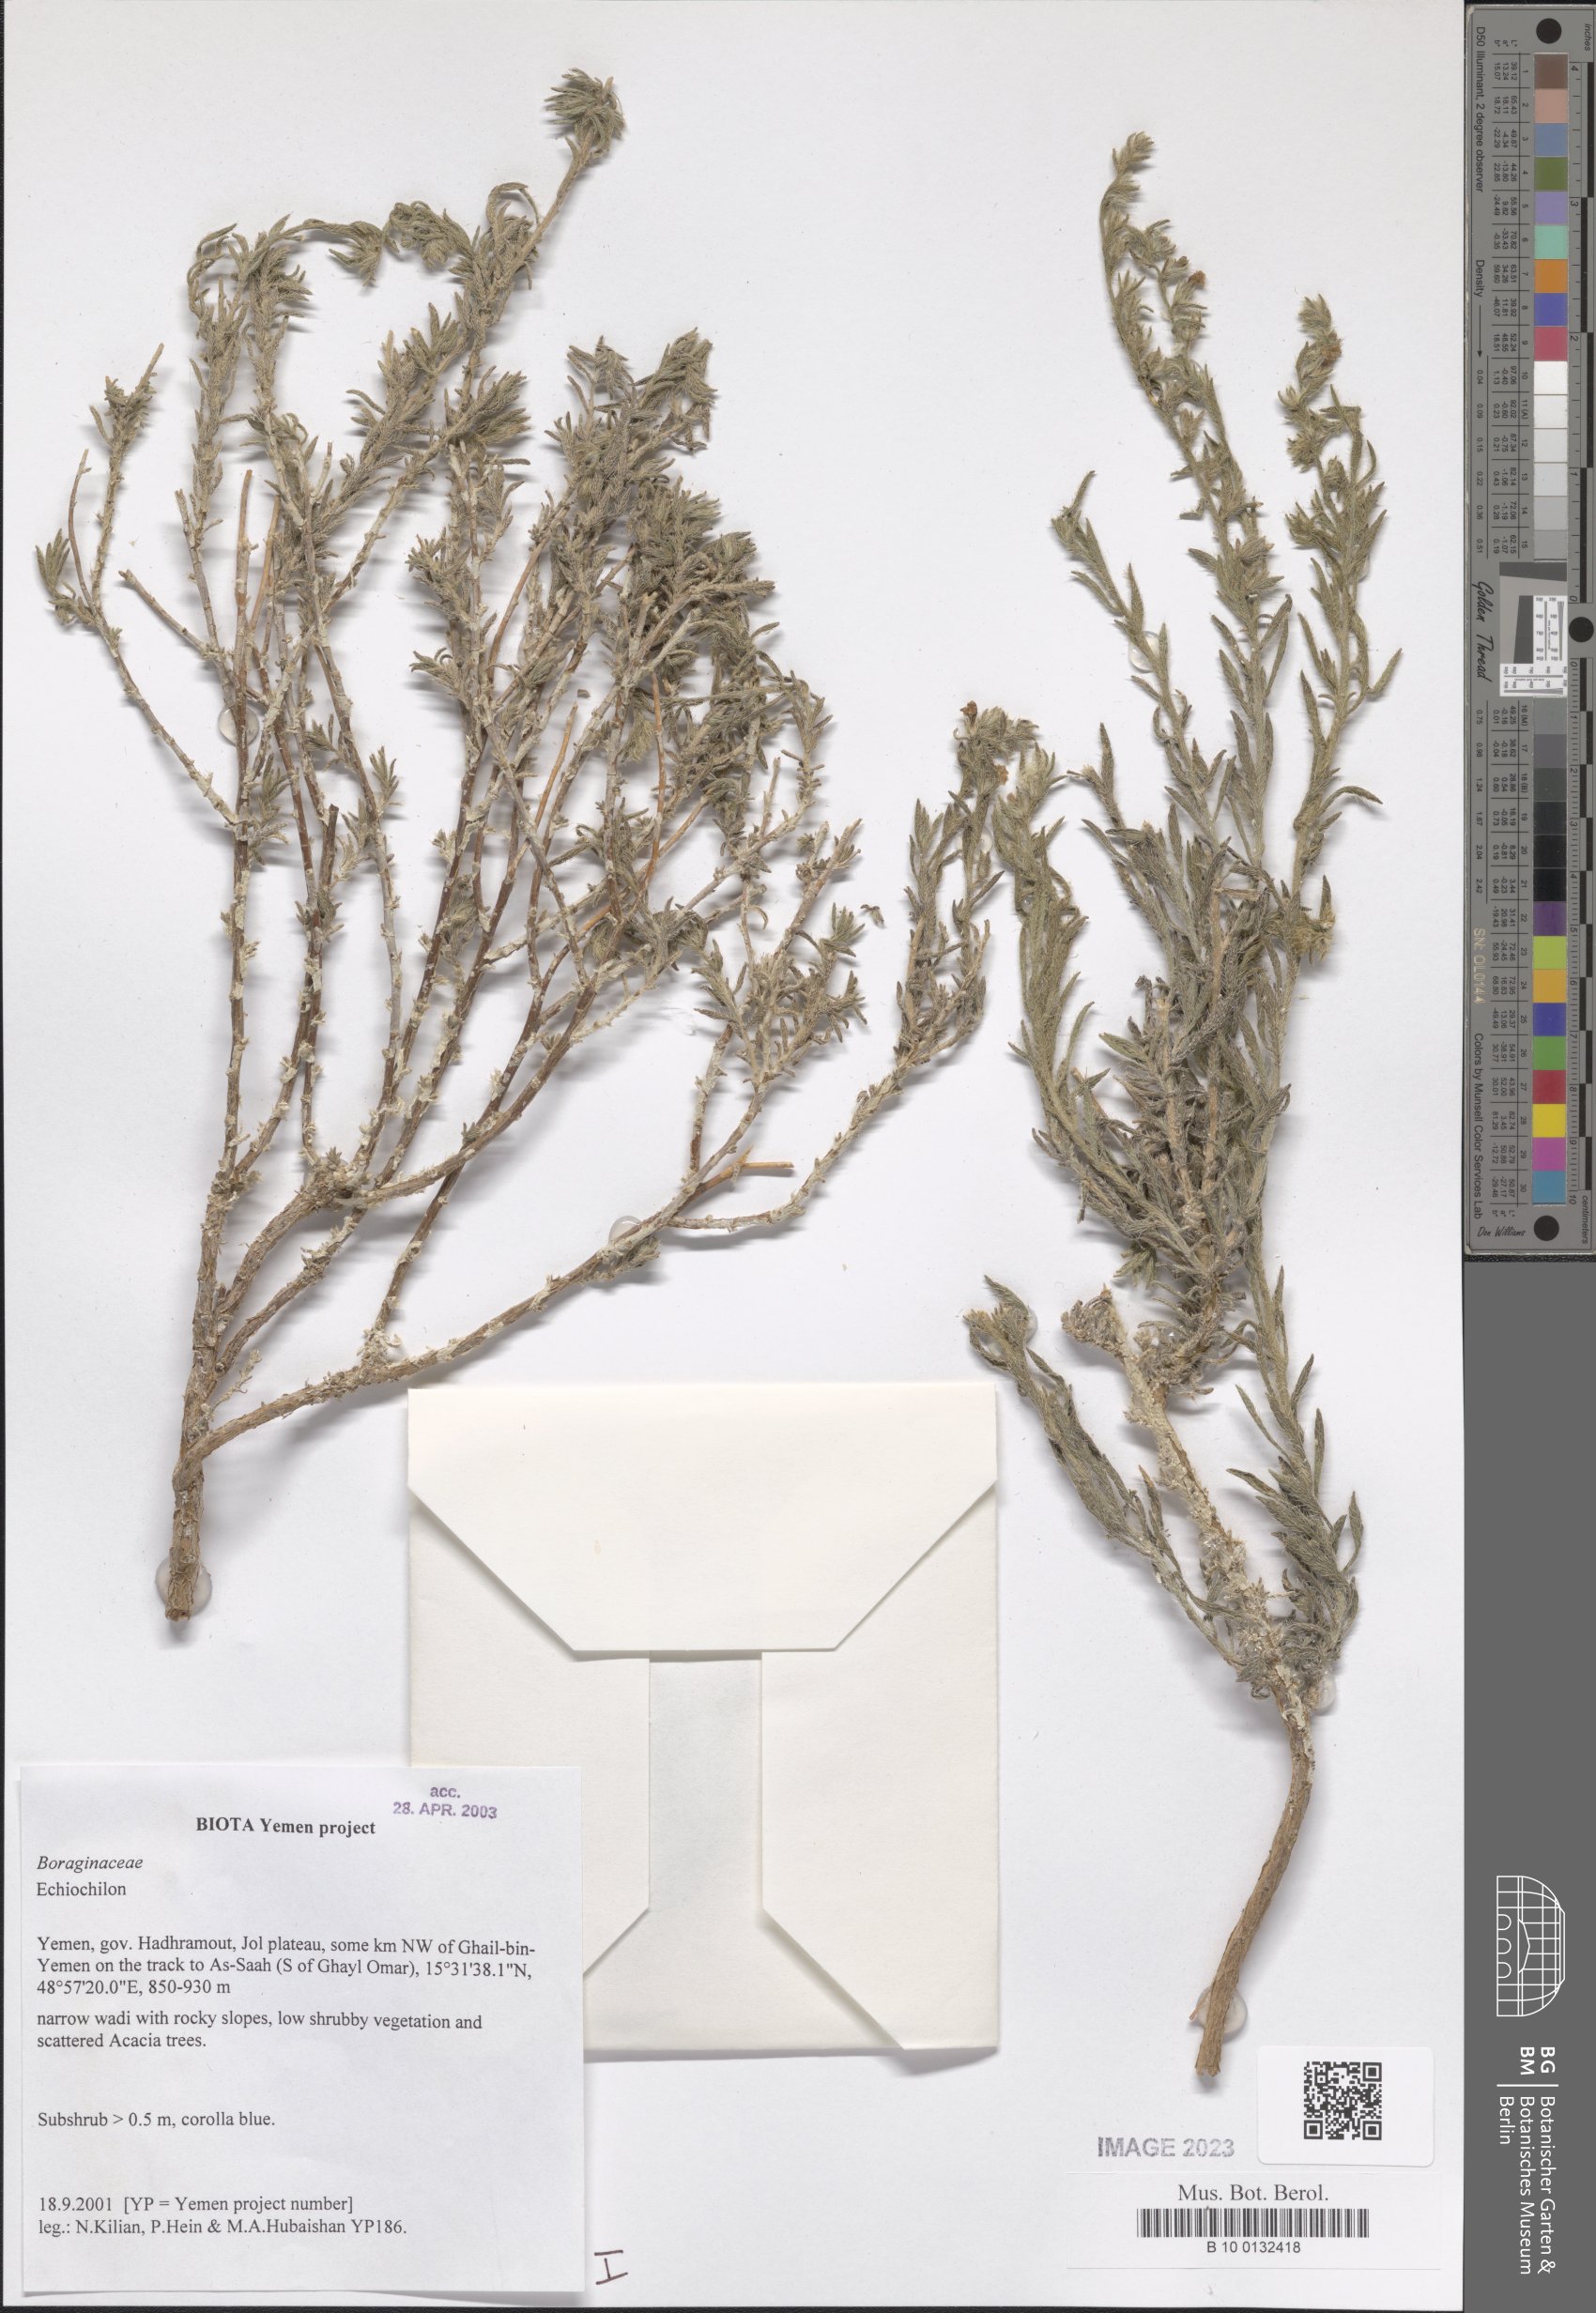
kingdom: Plantae
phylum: Tracheophyta
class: Magnoliopsida
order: Boraginales
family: Boraginaceae
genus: Echiochilon
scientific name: Echiochilon
